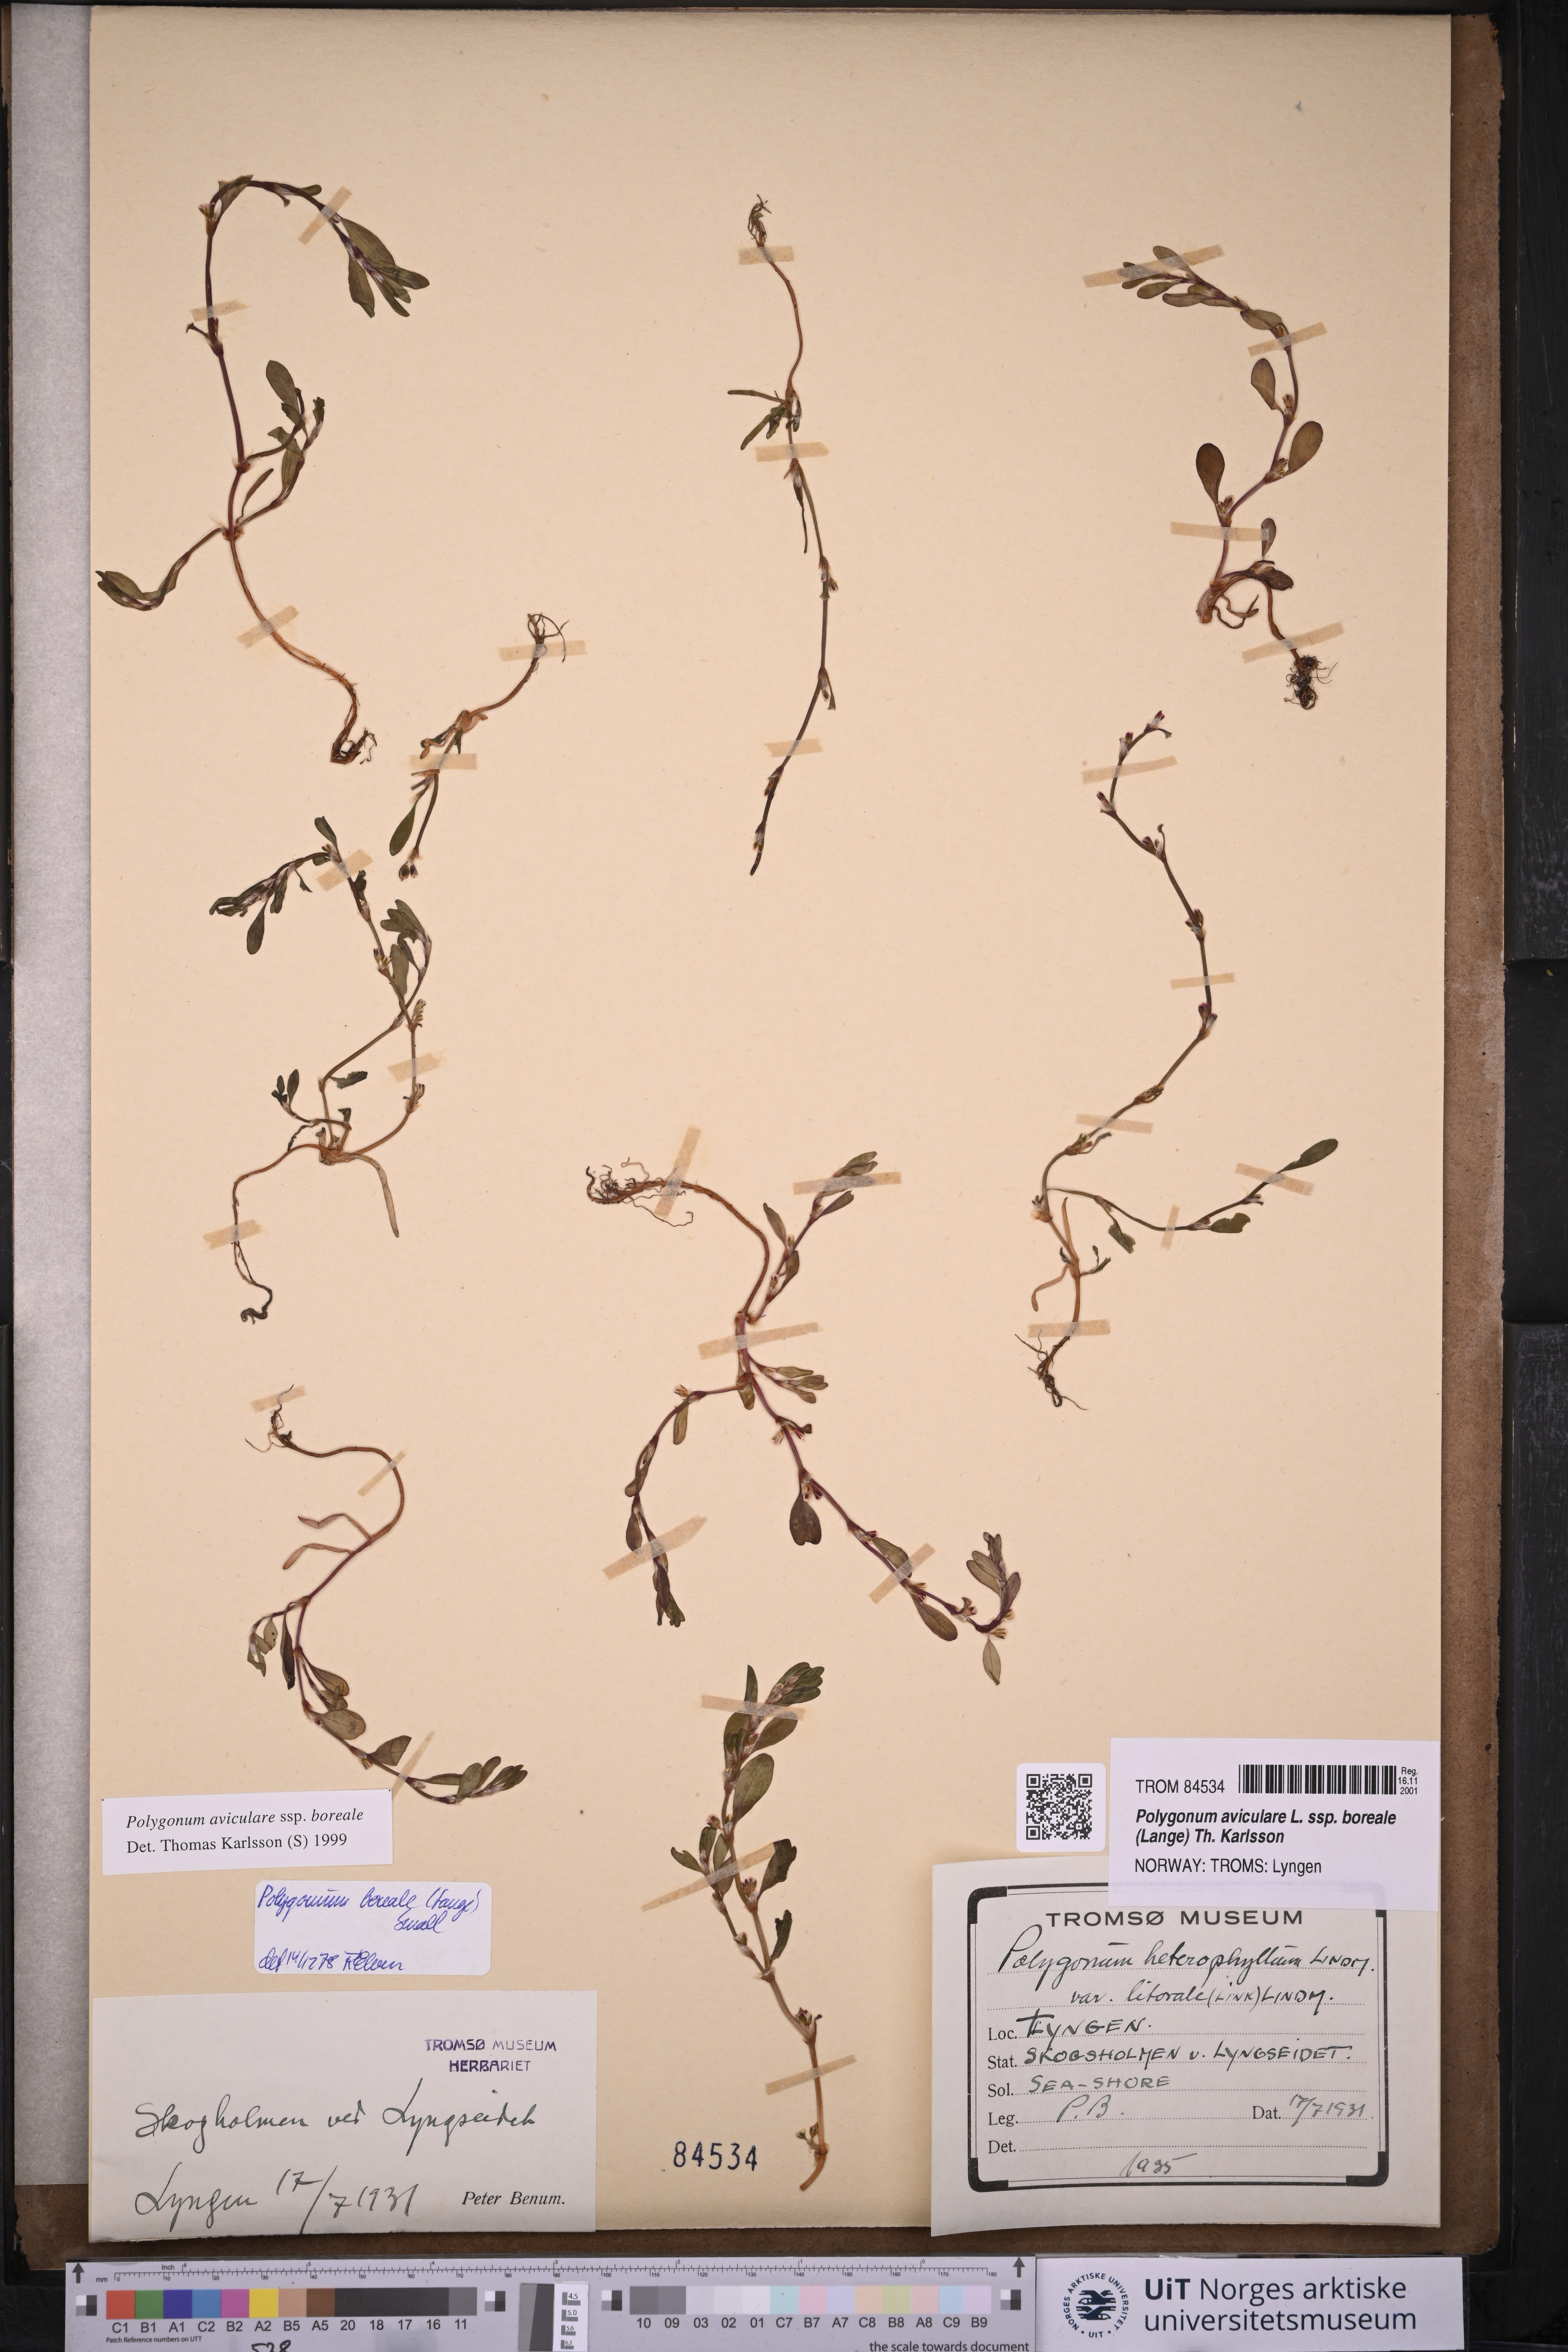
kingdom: Plantae
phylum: Tracheophyta
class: Magnoliopsida
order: Caryophyllales
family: Polygonaceae
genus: Polygonum
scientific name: Polygonum boreale
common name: Northern knotgrass
